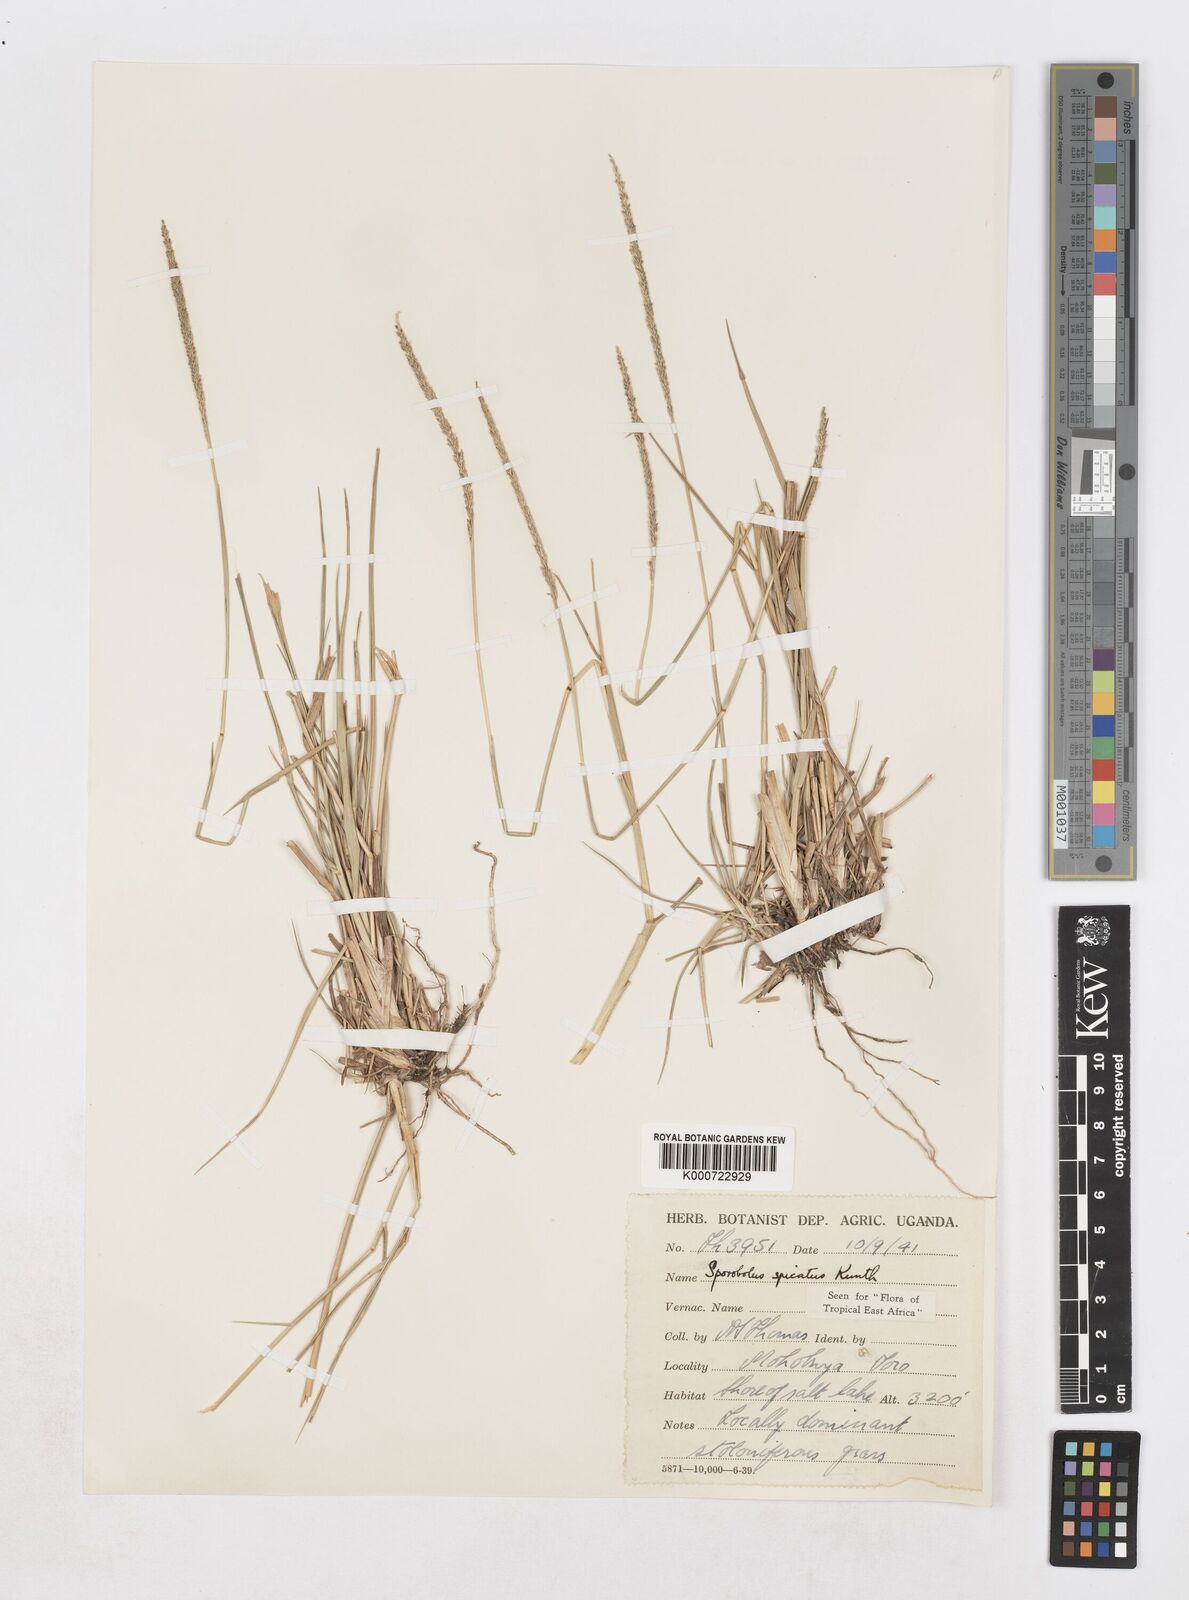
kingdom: Plantae
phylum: Tracheophyta
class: Liliopsida
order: Poales
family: Poaceae
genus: Sporobolus
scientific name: Sporobolus spicatus
